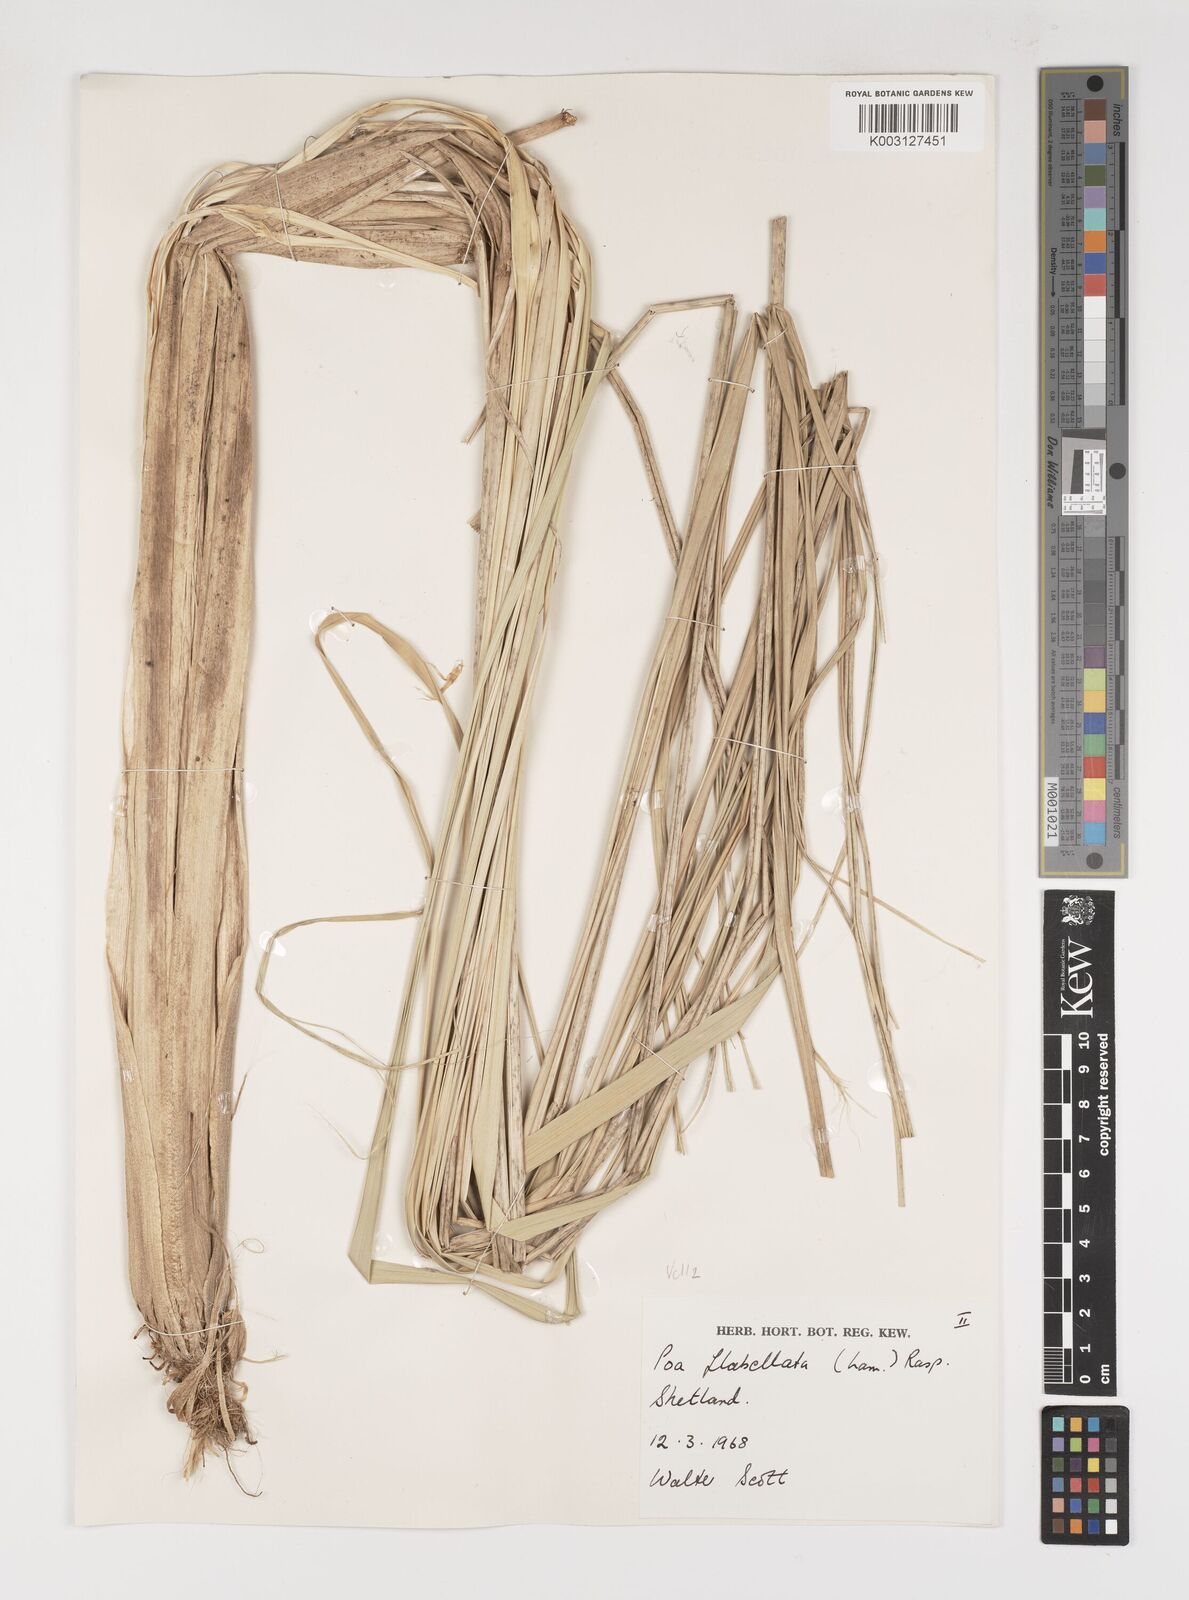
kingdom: Plantae
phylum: Tracheophyta
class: Liliopsida
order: Poales
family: Poaceae
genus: Poa
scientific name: Poa flabellata
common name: Tussac-grass
